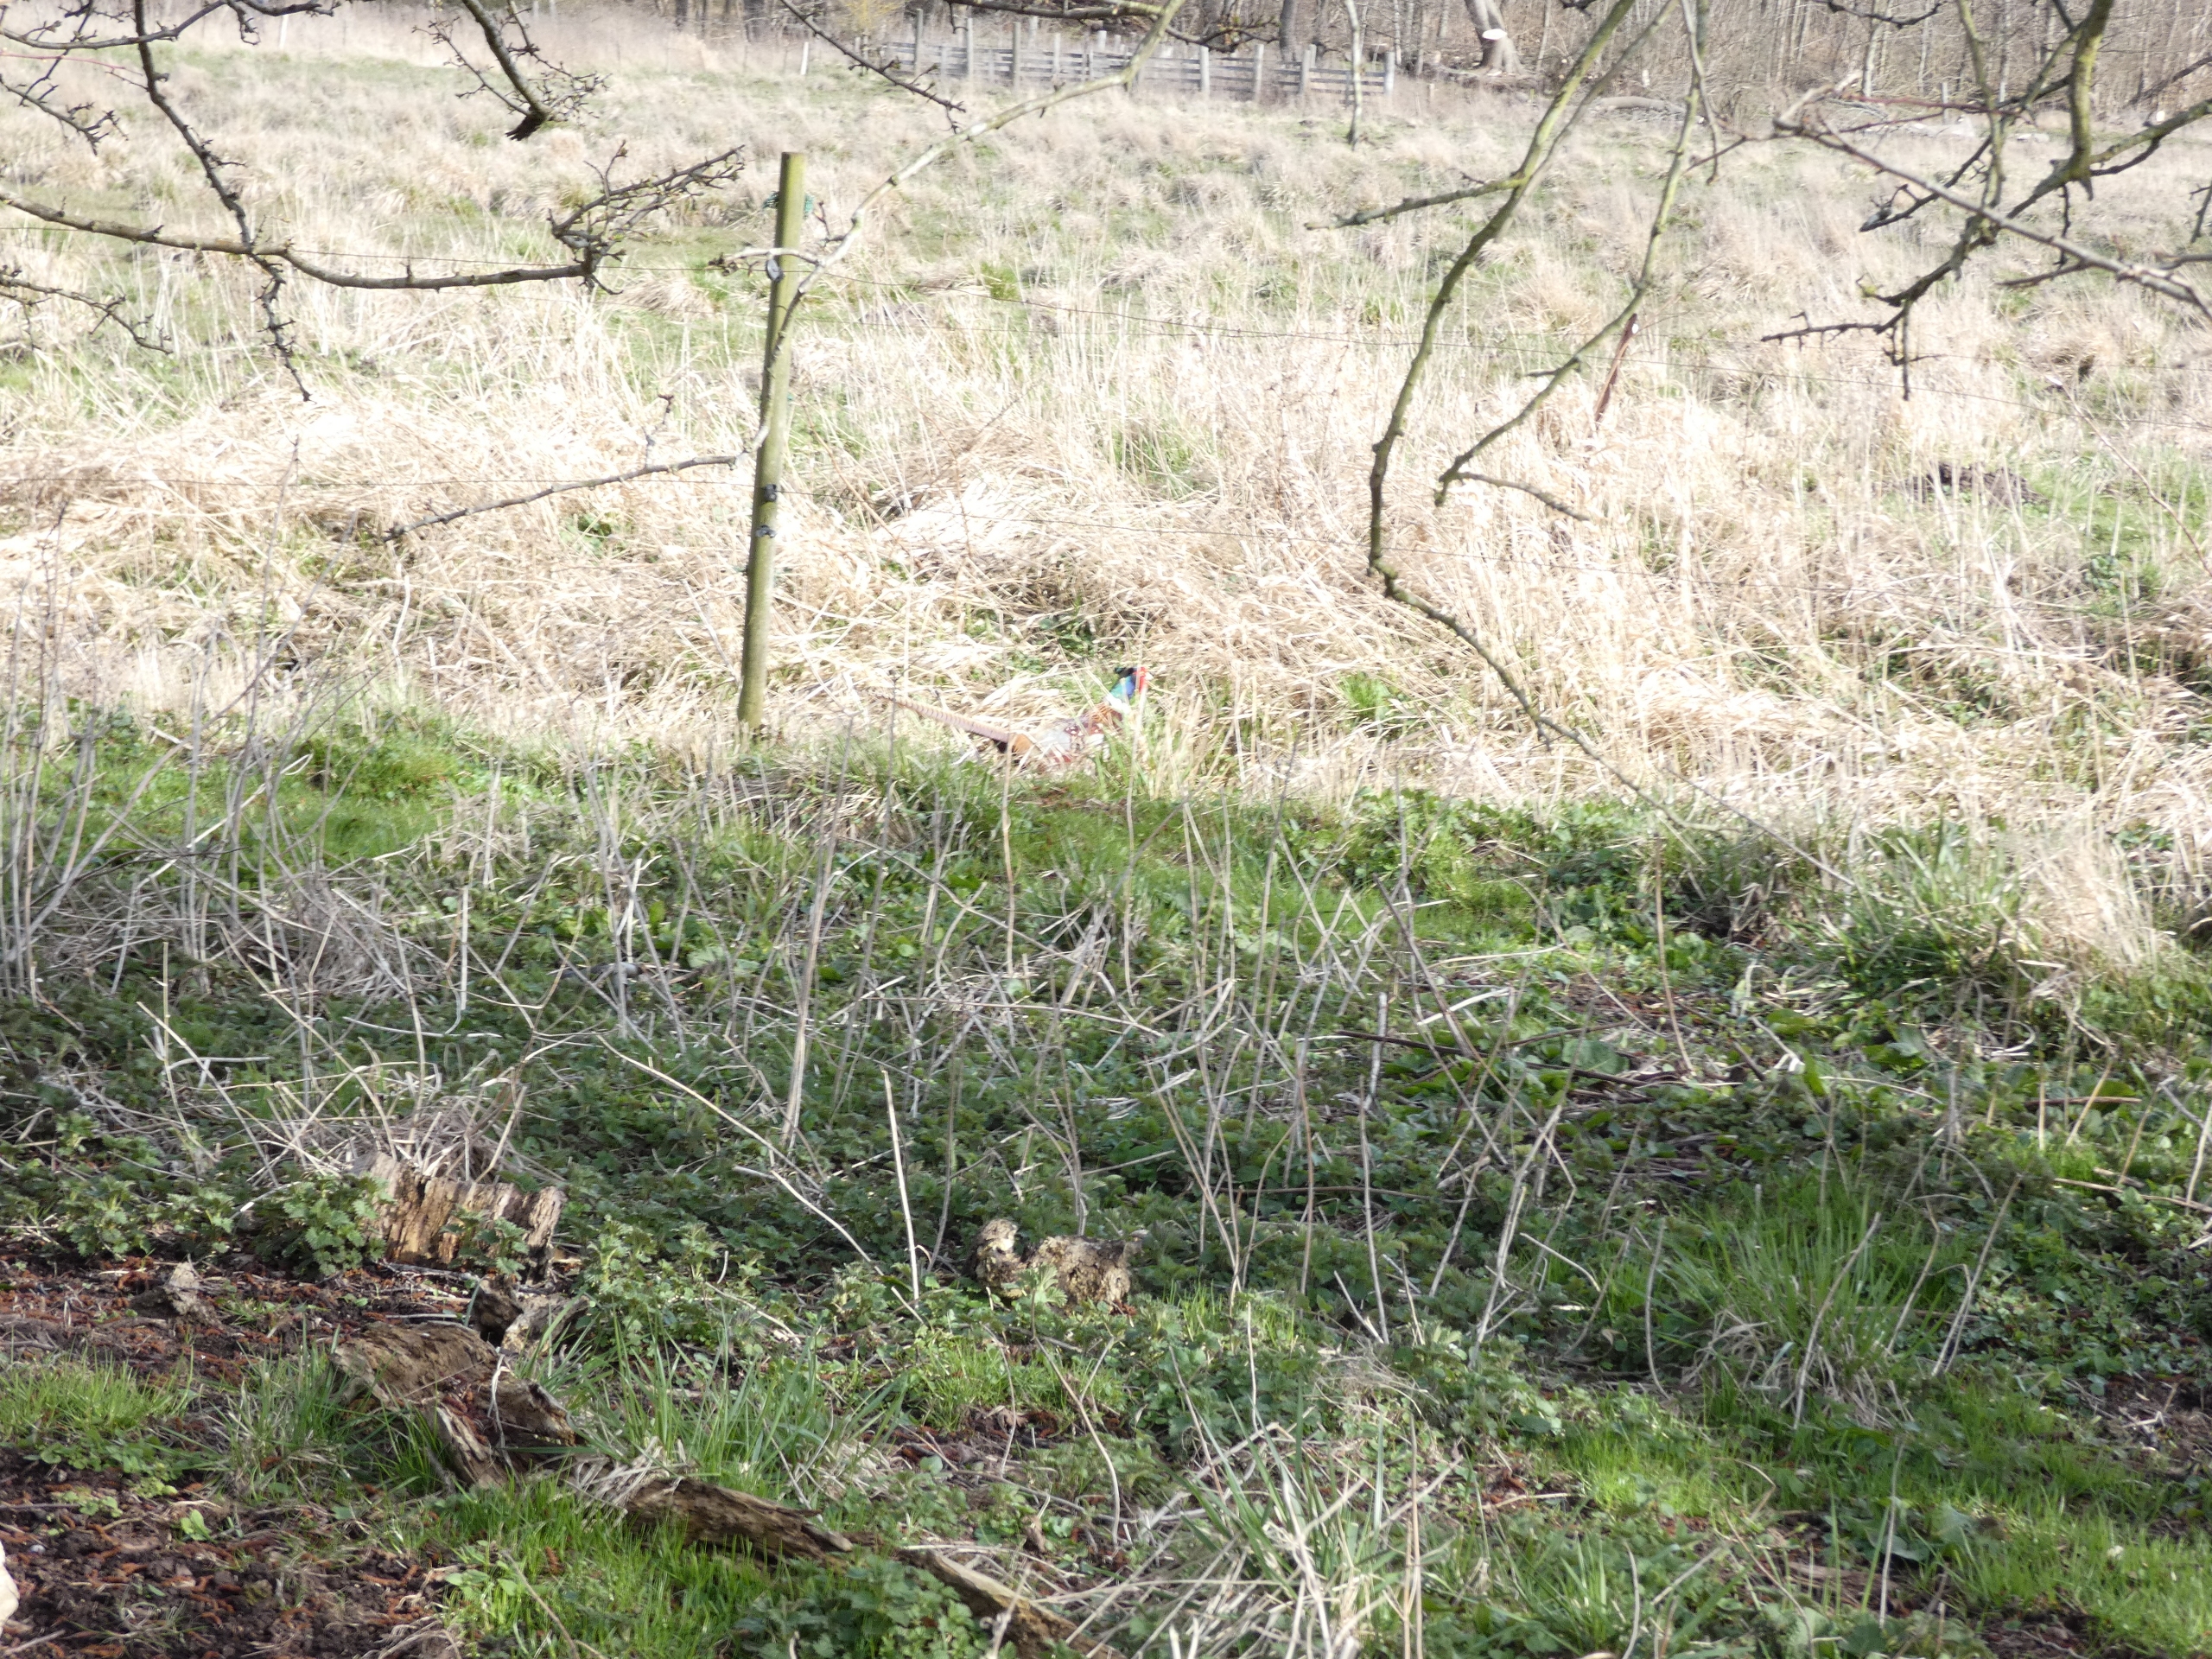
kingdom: Animalia
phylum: Chordata
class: Aves
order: Galliformes
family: Phasianidae
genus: Phasianus
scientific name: Phasianus colchicus
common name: Fasan
